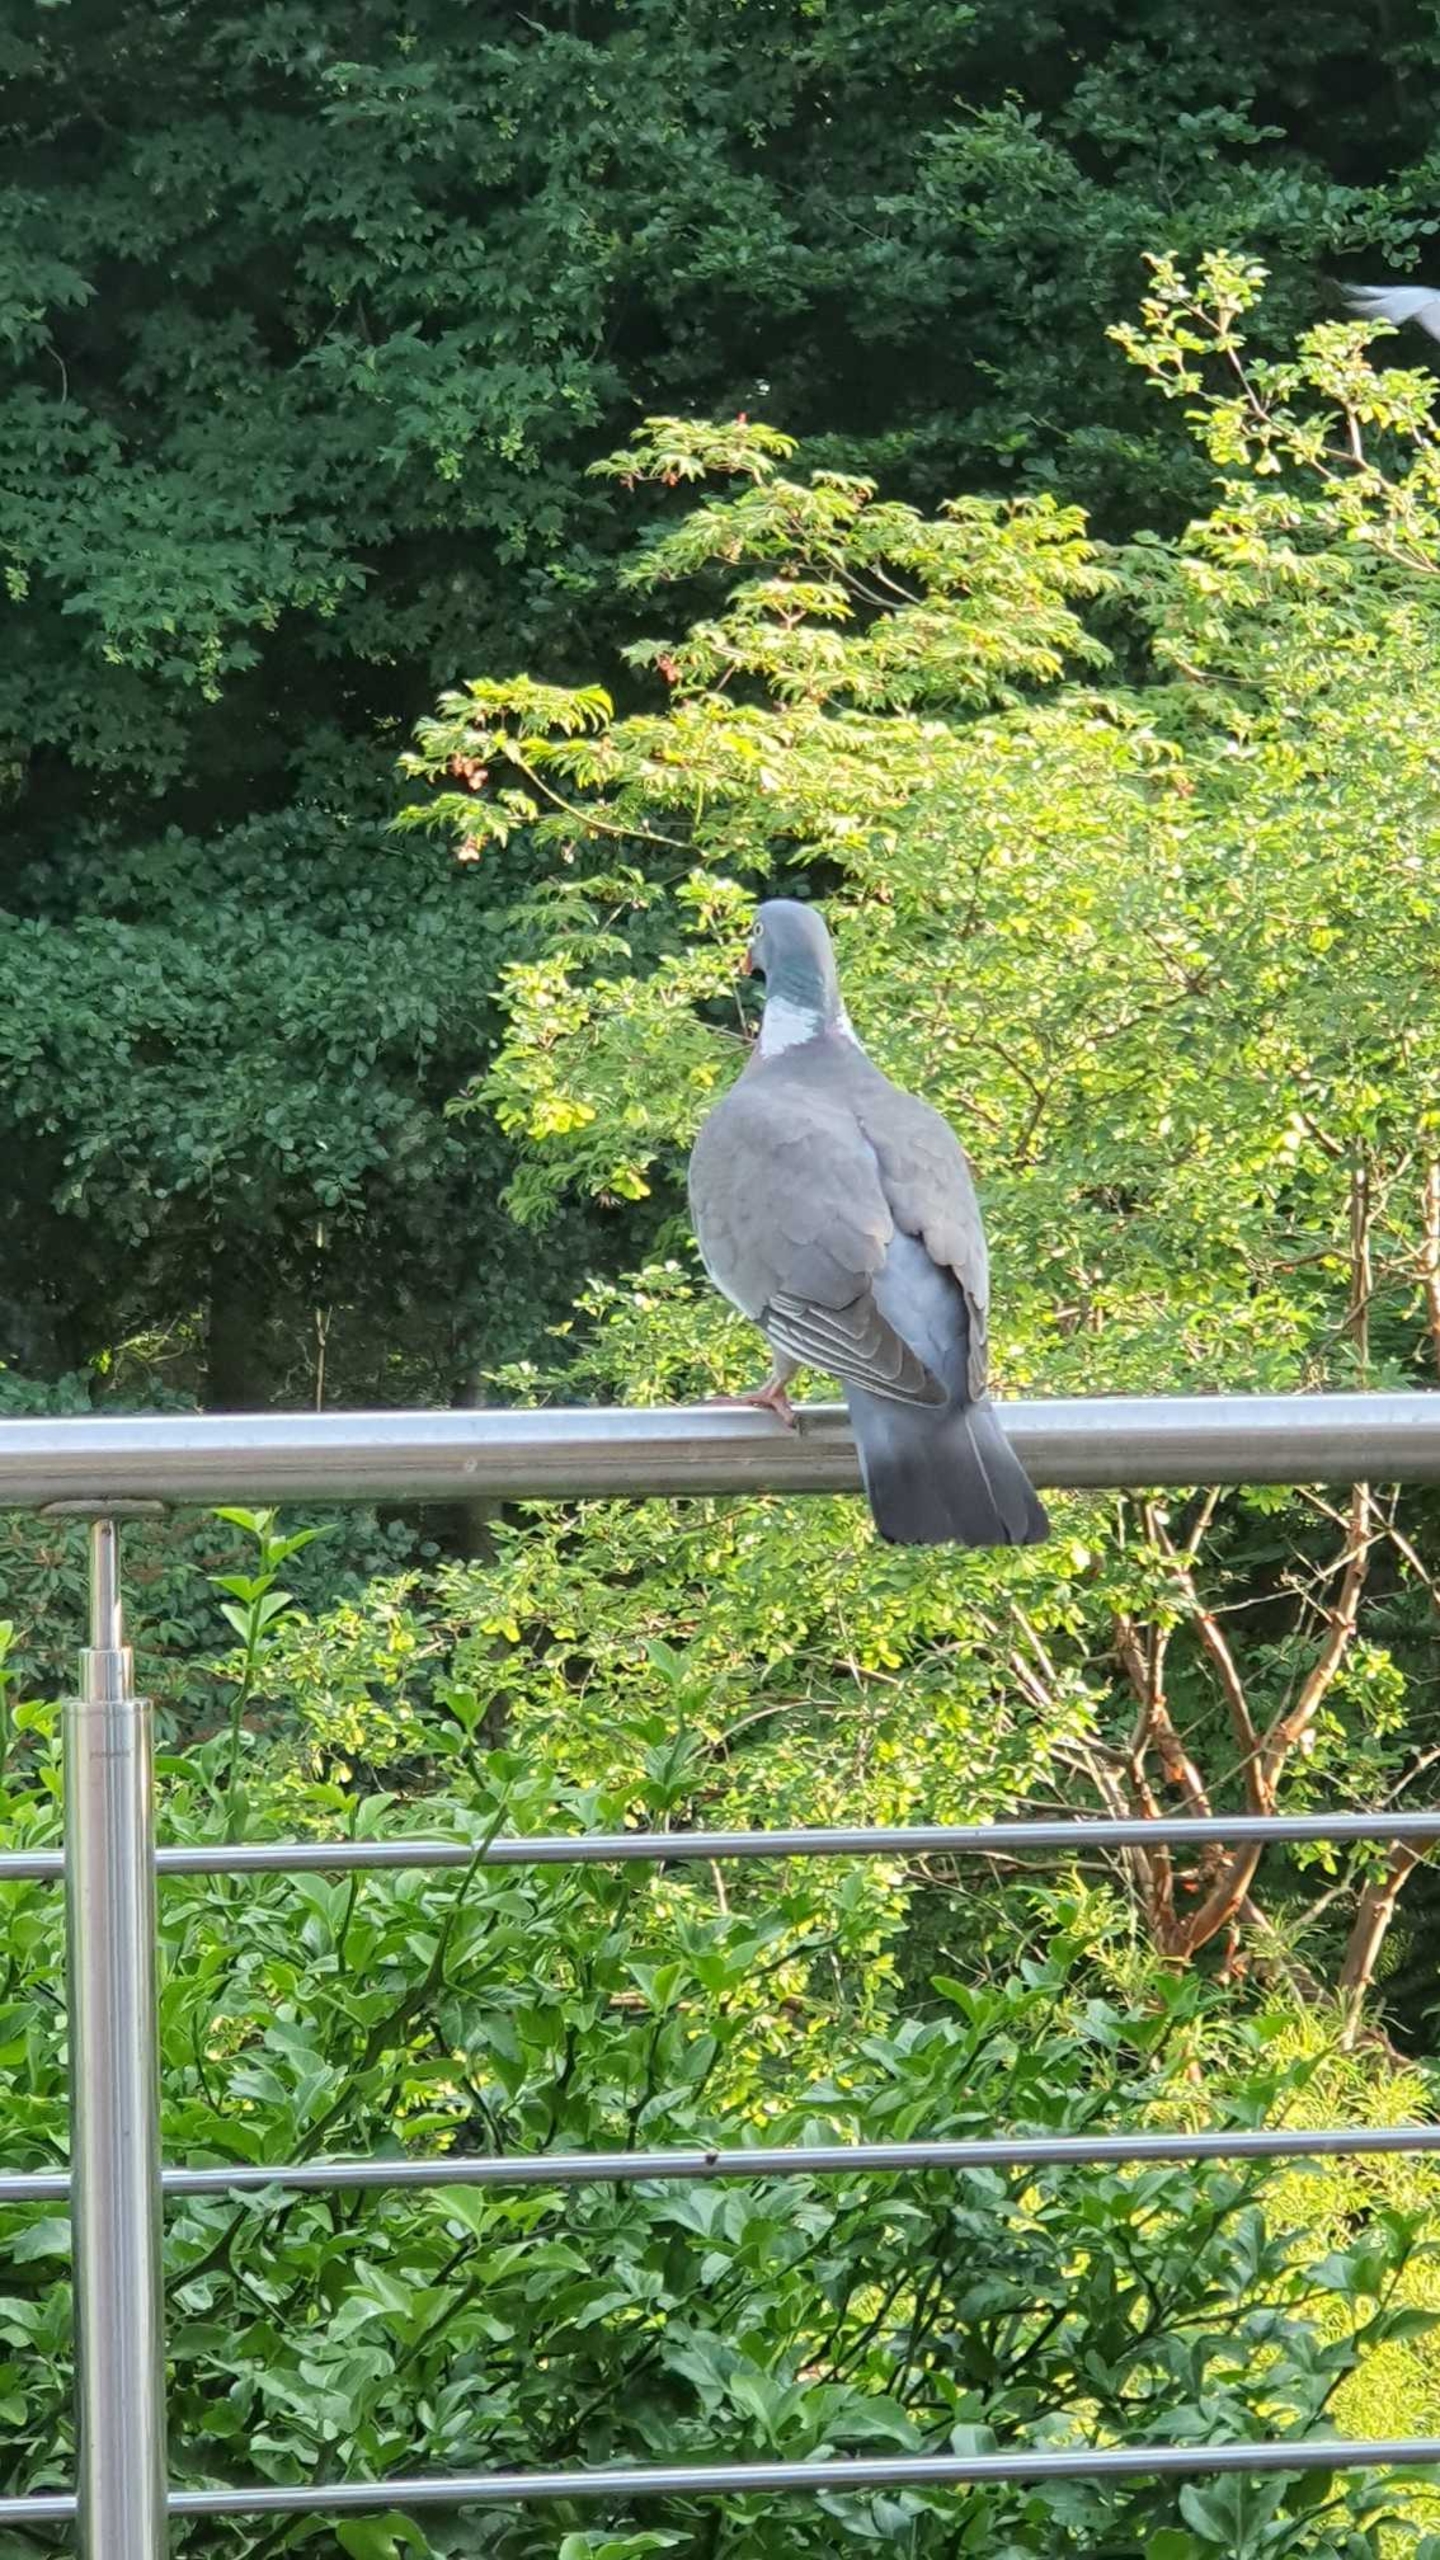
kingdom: Animalia
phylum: Chordata
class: Aves
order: Columbiformes
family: Columbidae
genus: Columba
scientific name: Columba palumbus
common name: Ringdue
